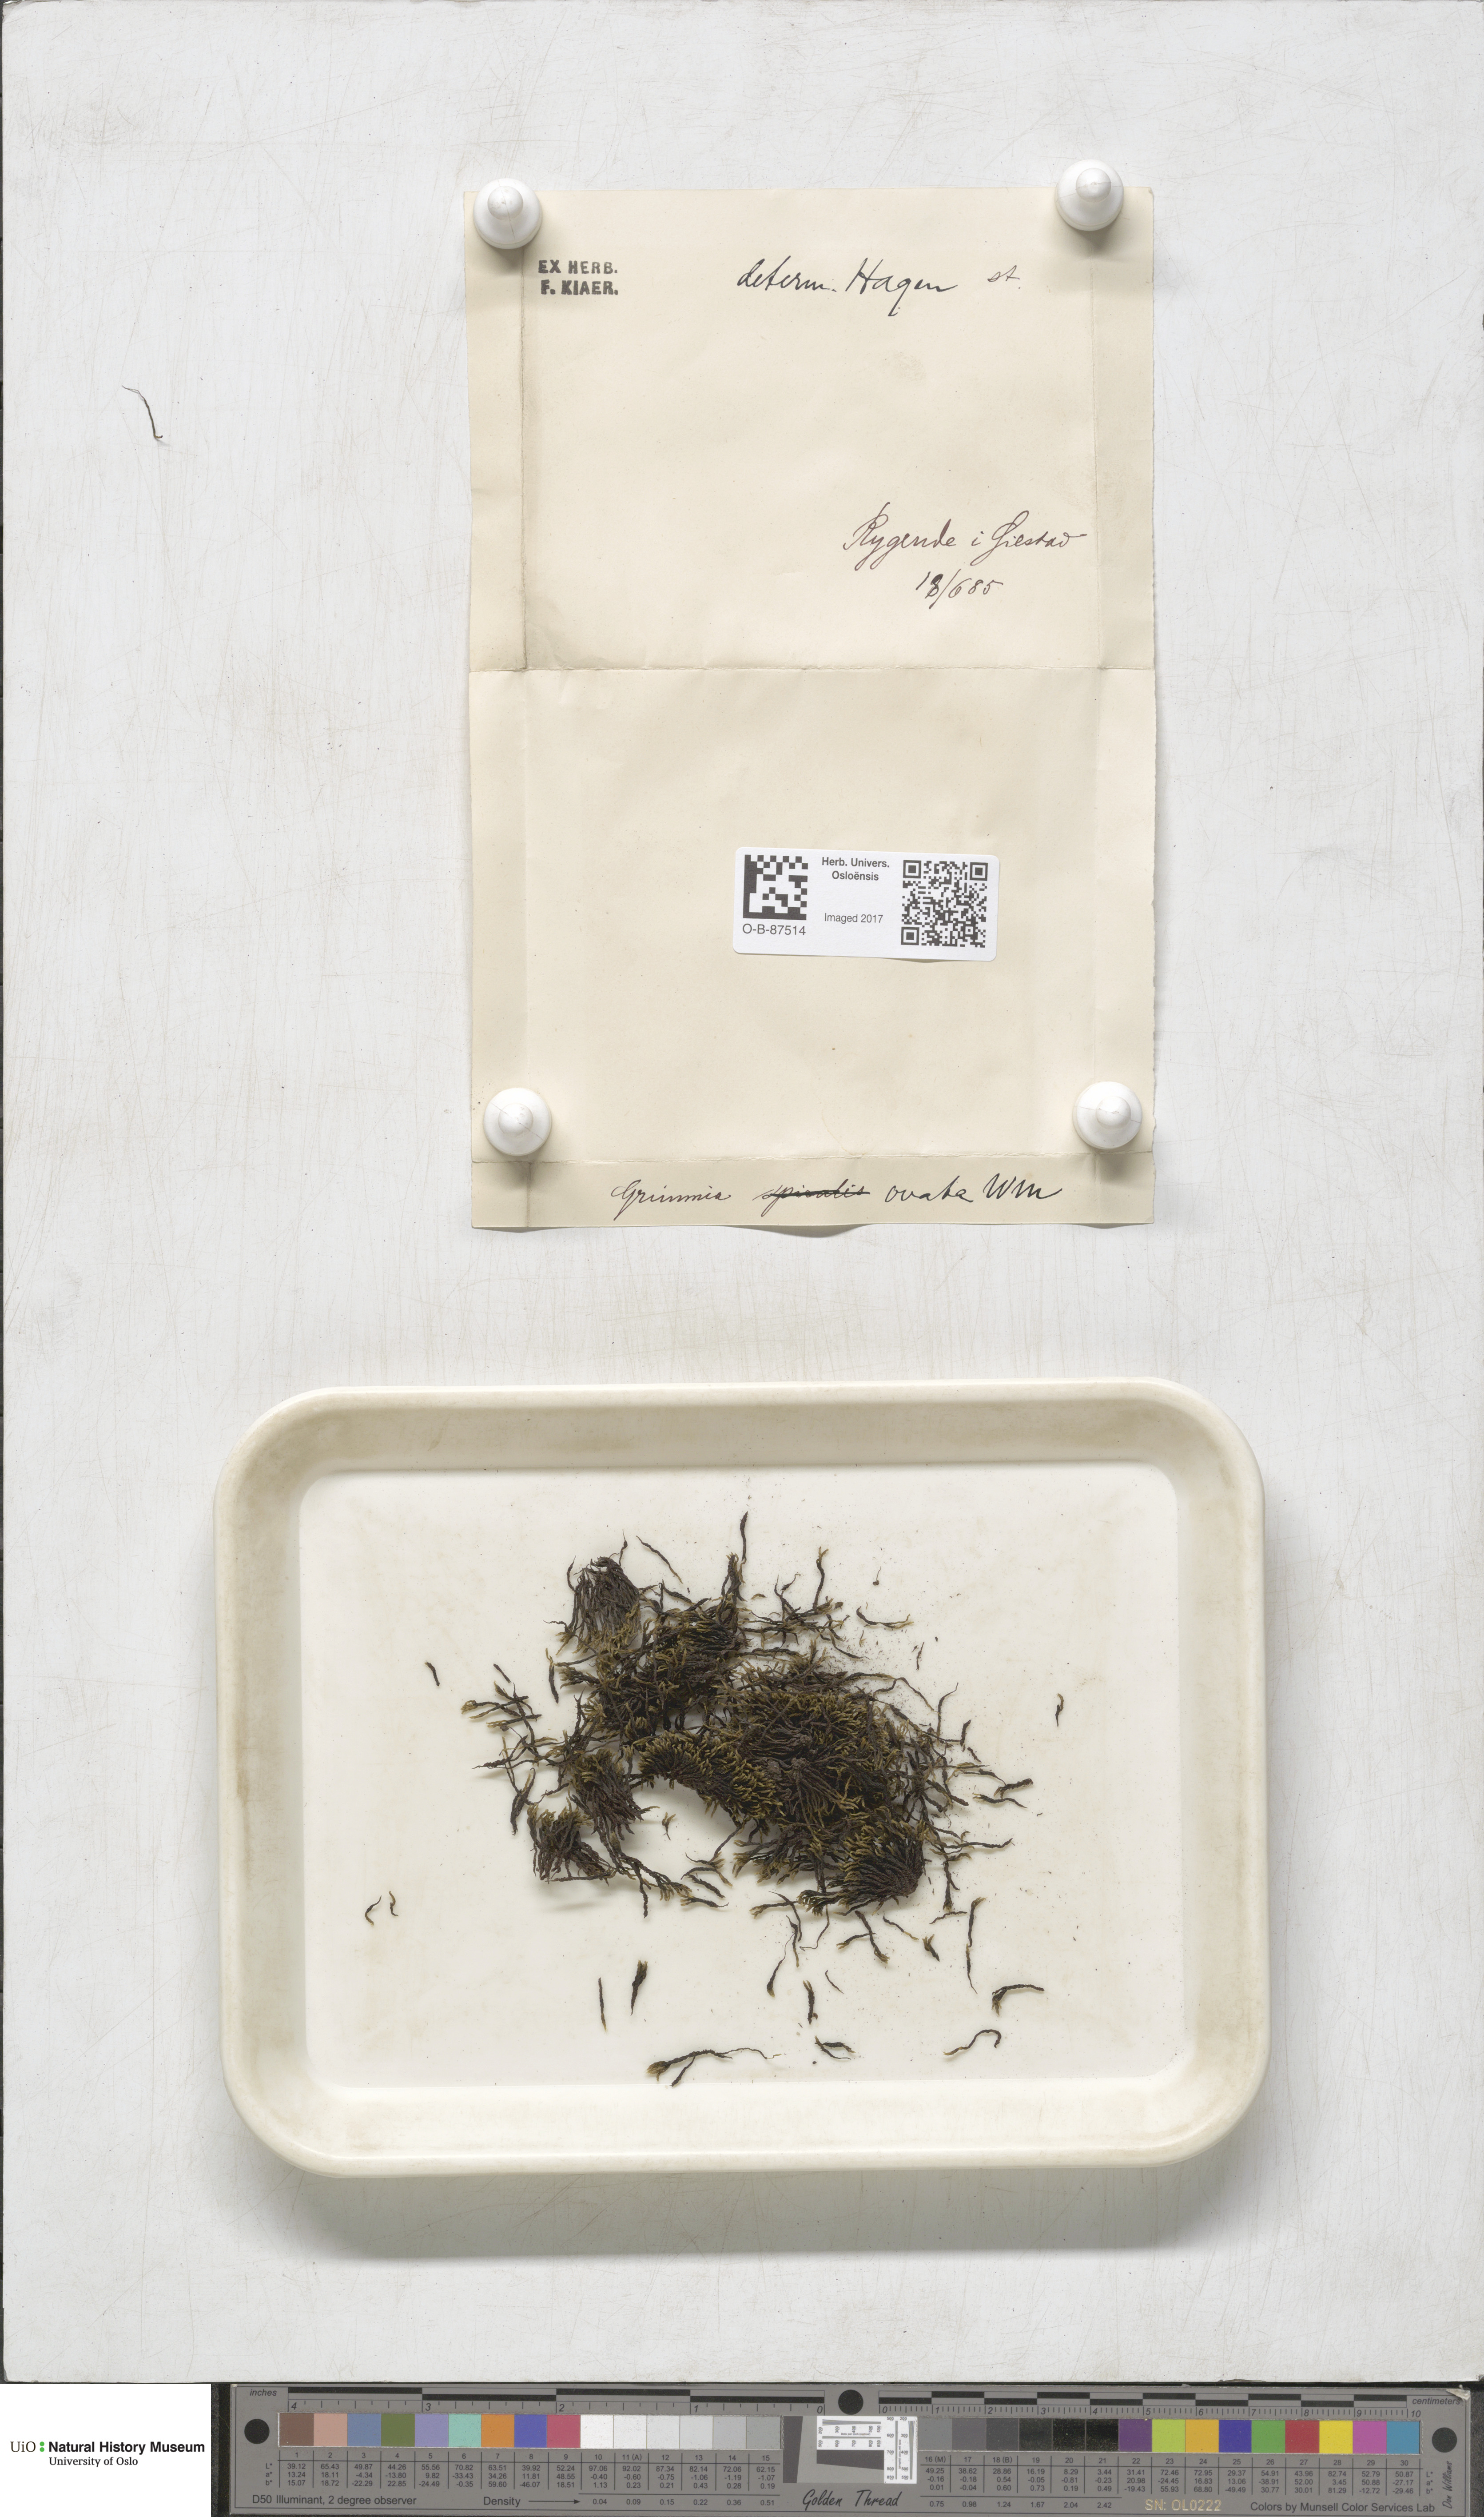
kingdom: Plantae
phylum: Bryophyta
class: Bryopsida
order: Grimmiales
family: Grimmiaceae
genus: Grimmia
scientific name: Grimmia ovalis
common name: Oval grimmia
